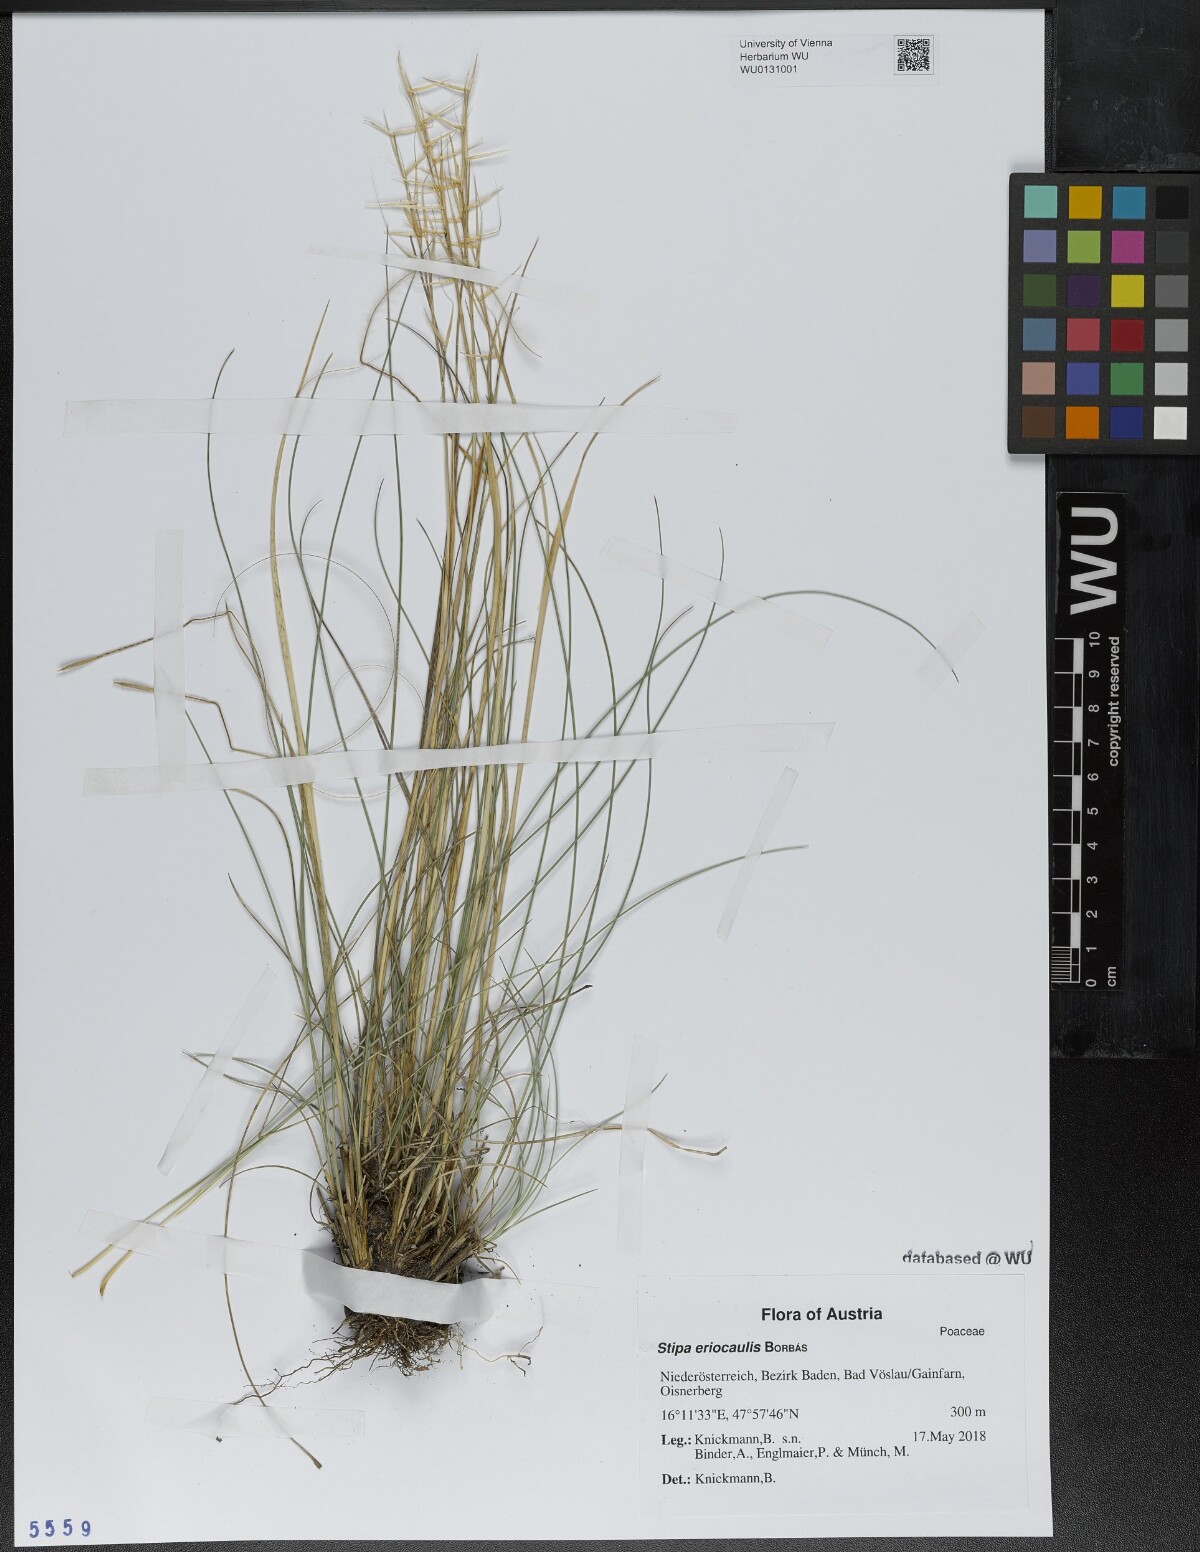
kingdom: Plantae
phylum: Tracheophyta
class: Liliopsida
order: Poales
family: Poaceae
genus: Stipa
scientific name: Stipa pennata
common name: European feather grass
